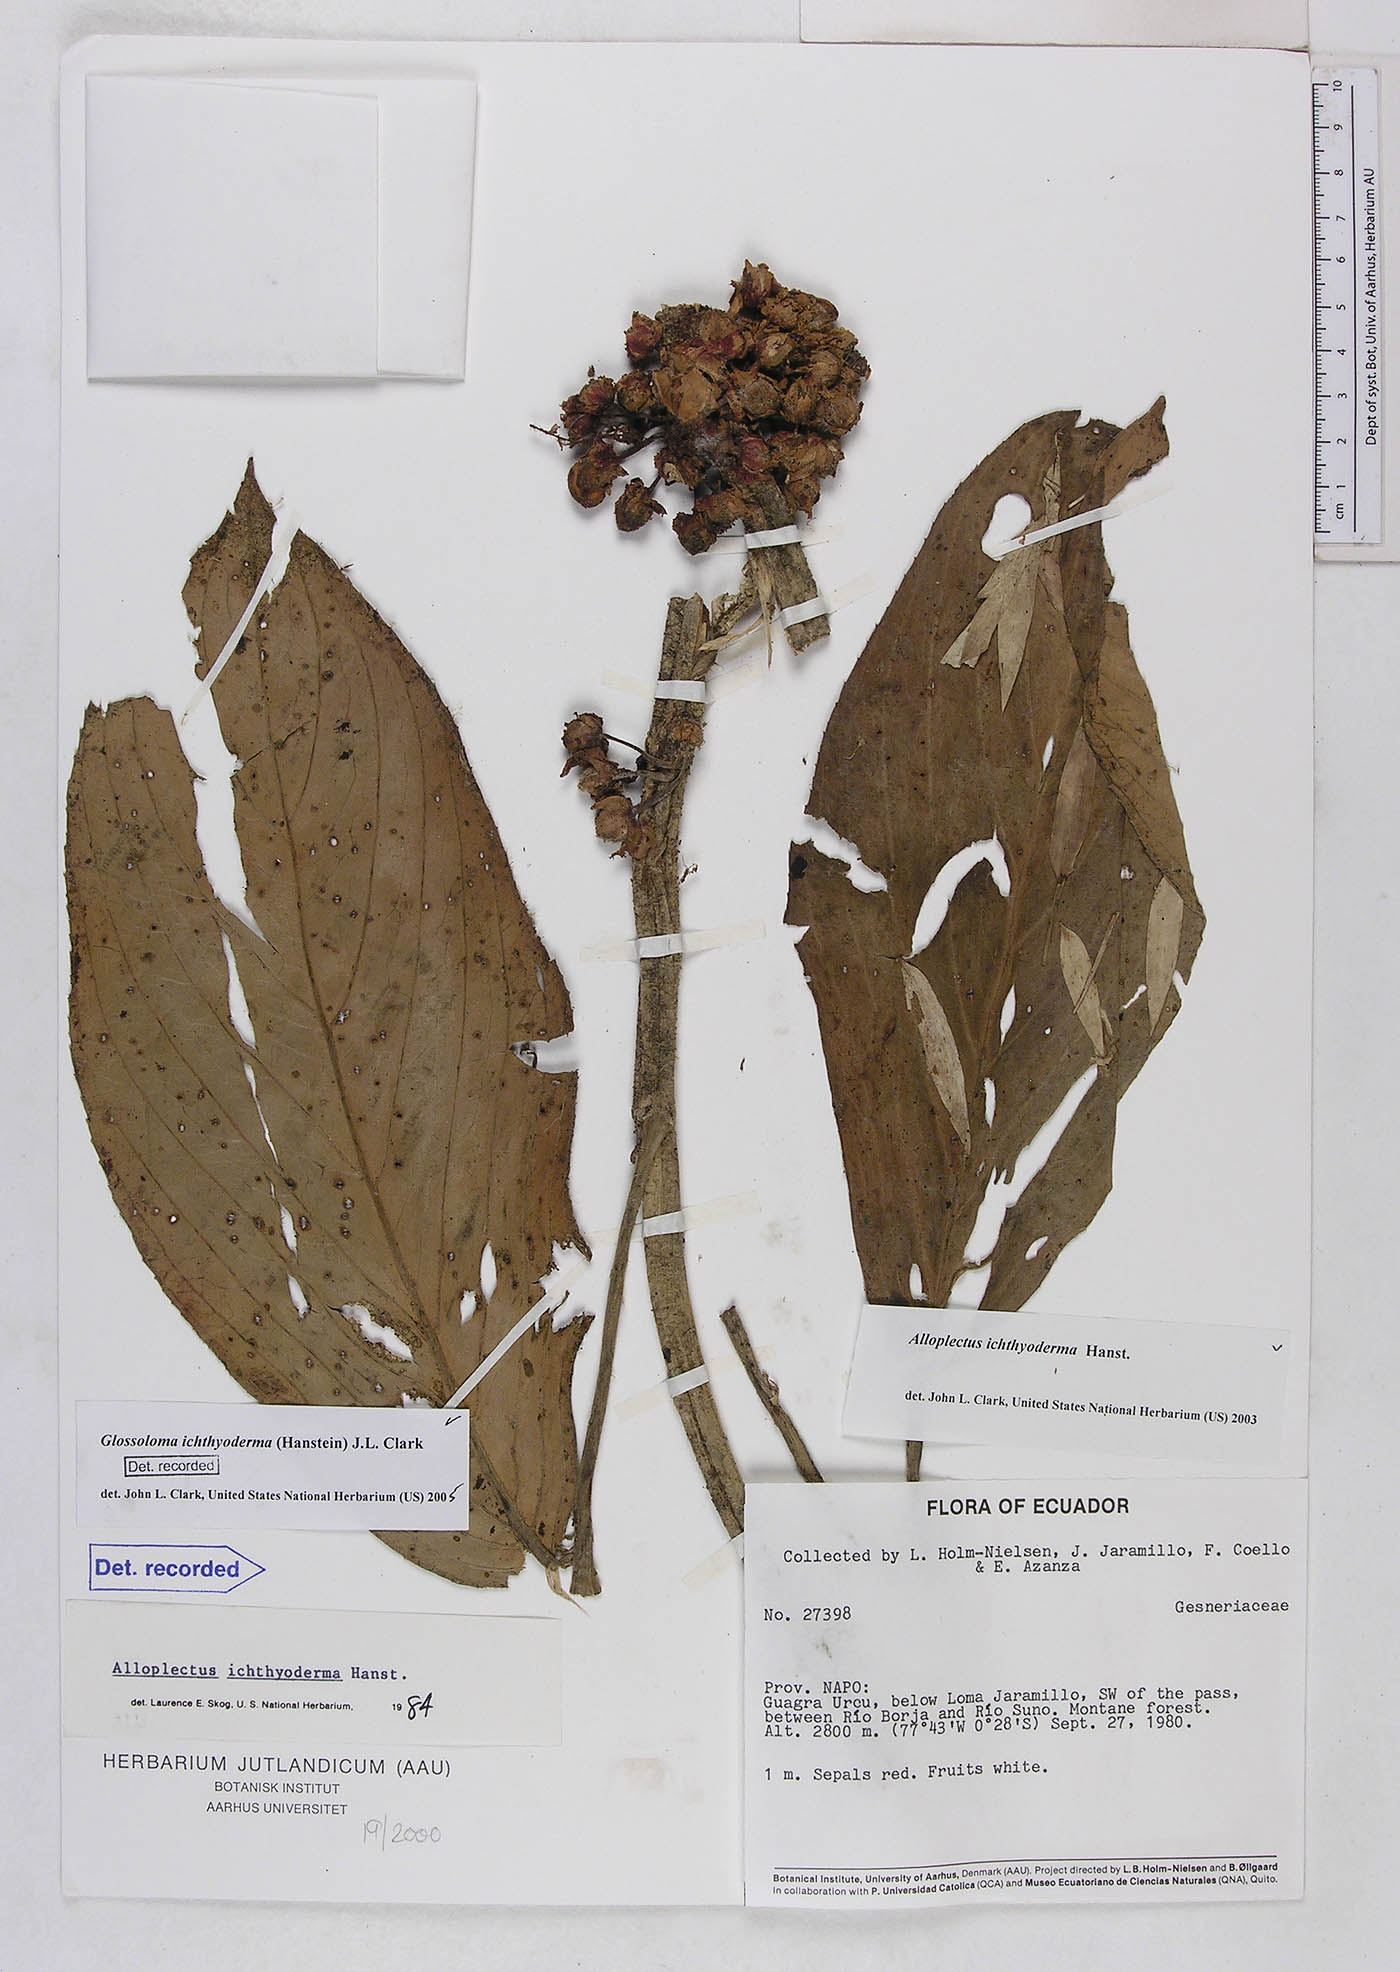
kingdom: Plantae
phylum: Tracheophyta
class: Magnoliopsida
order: Lamiales
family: Gesneriaceae
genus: Glossoloma
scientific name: Glossoloma ichthyoderma
